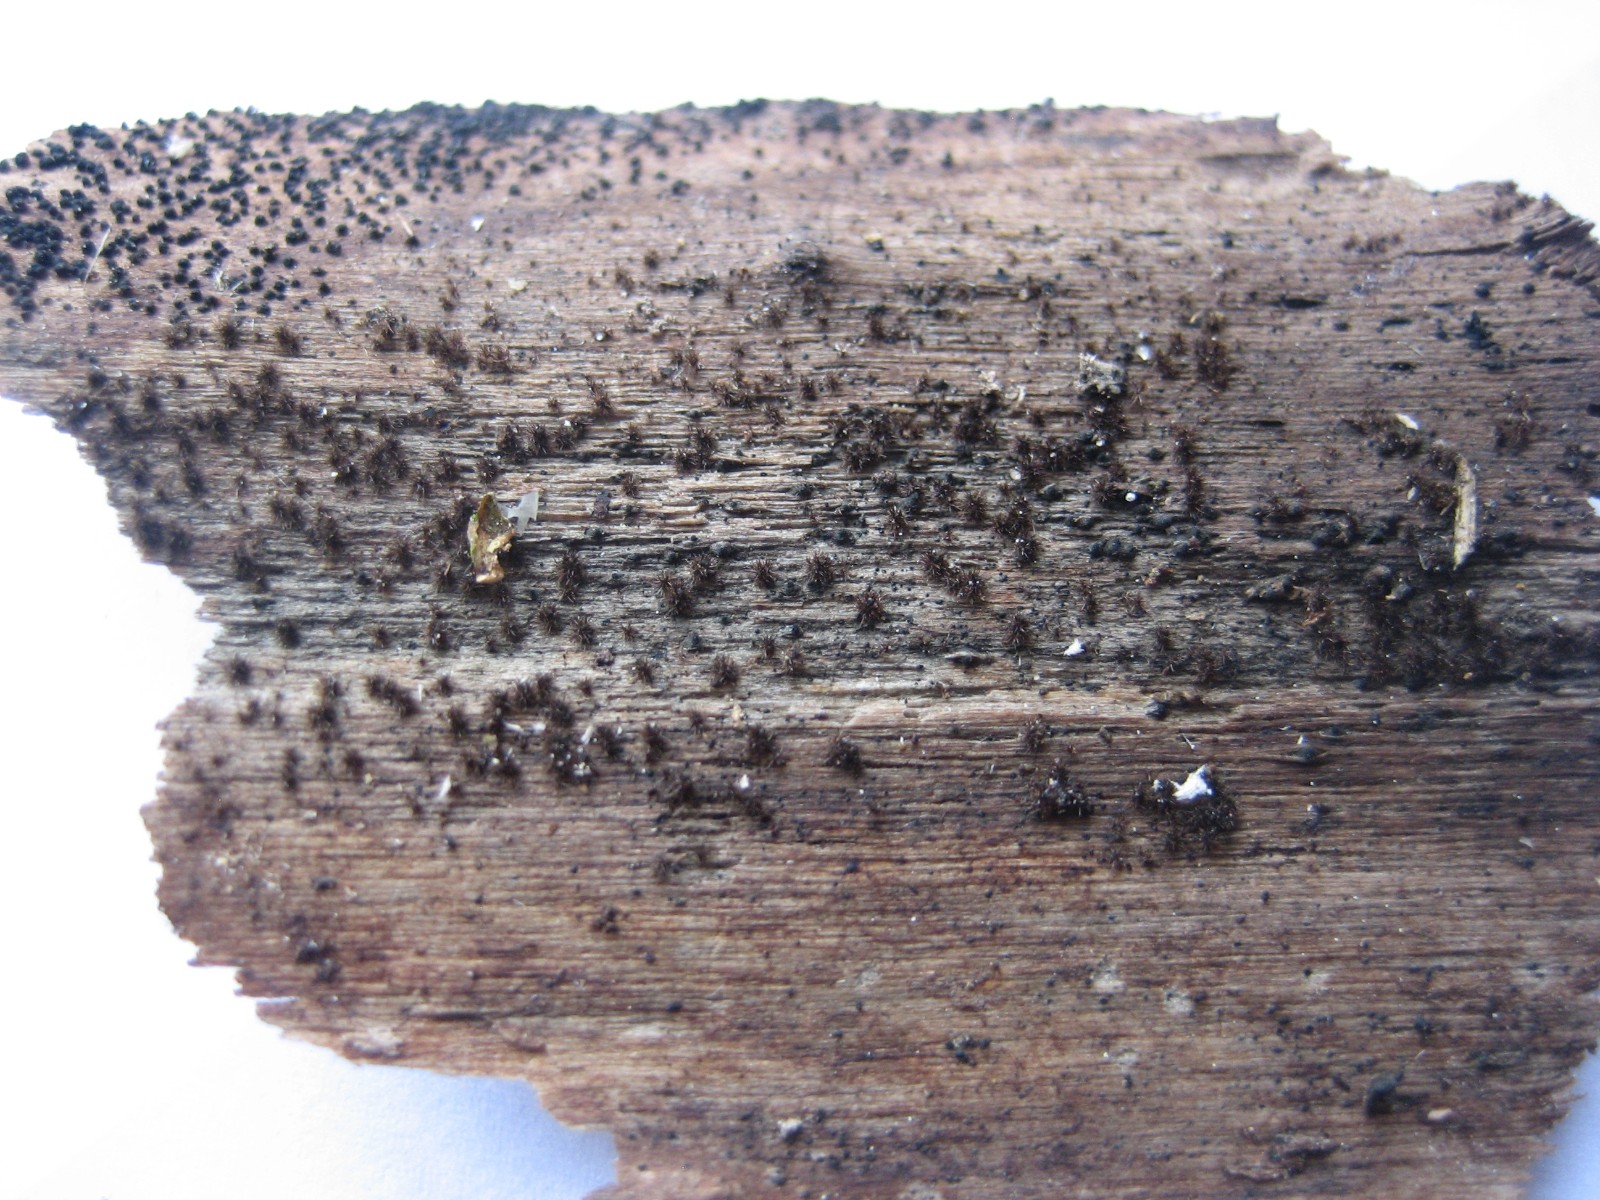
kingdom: Fungi
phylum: Ascomycota
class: Sordariomycetes
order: Sordariales
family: Helminthosphaeriaceae
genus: Echinosphaeria
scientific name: Echinosphaeria
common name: børstekerne
